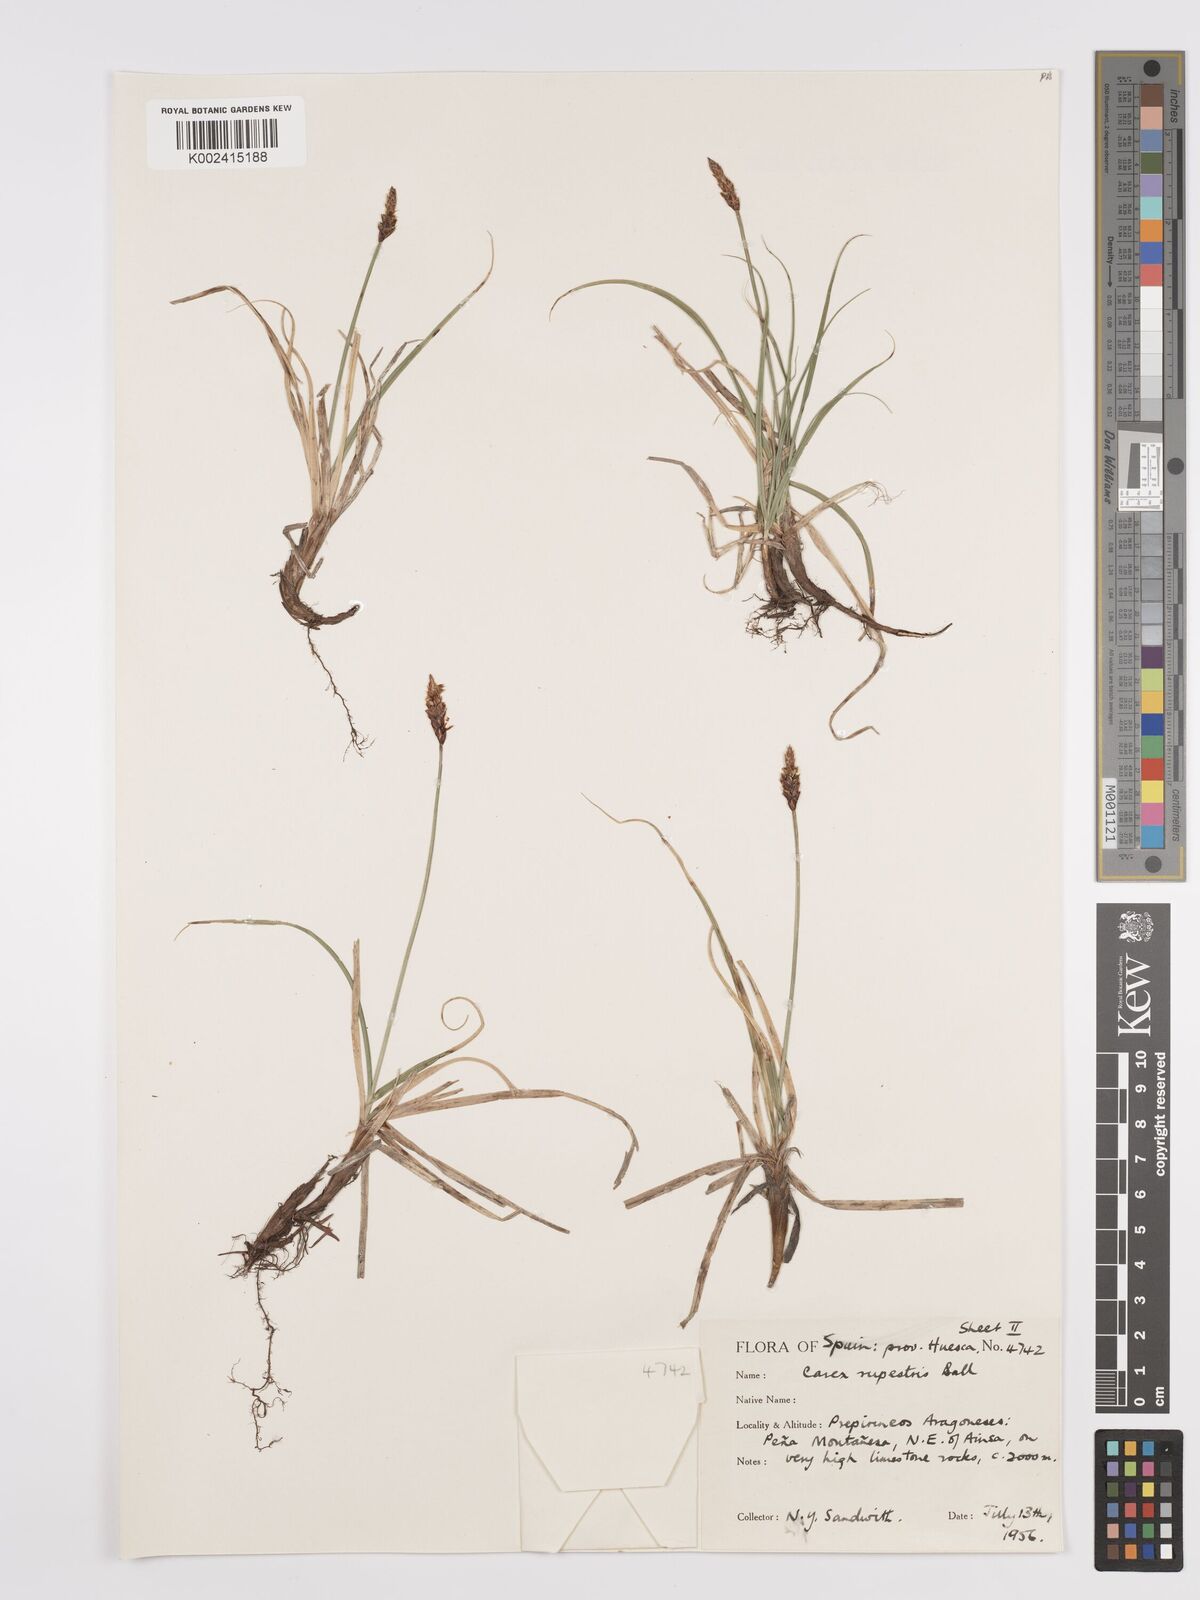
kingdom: Plantae
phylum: Tracheophyta
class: Liliopsida
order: Poales
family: Cyperaceae
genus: Carex
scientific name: Carex rupestris
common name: Rock sedge
